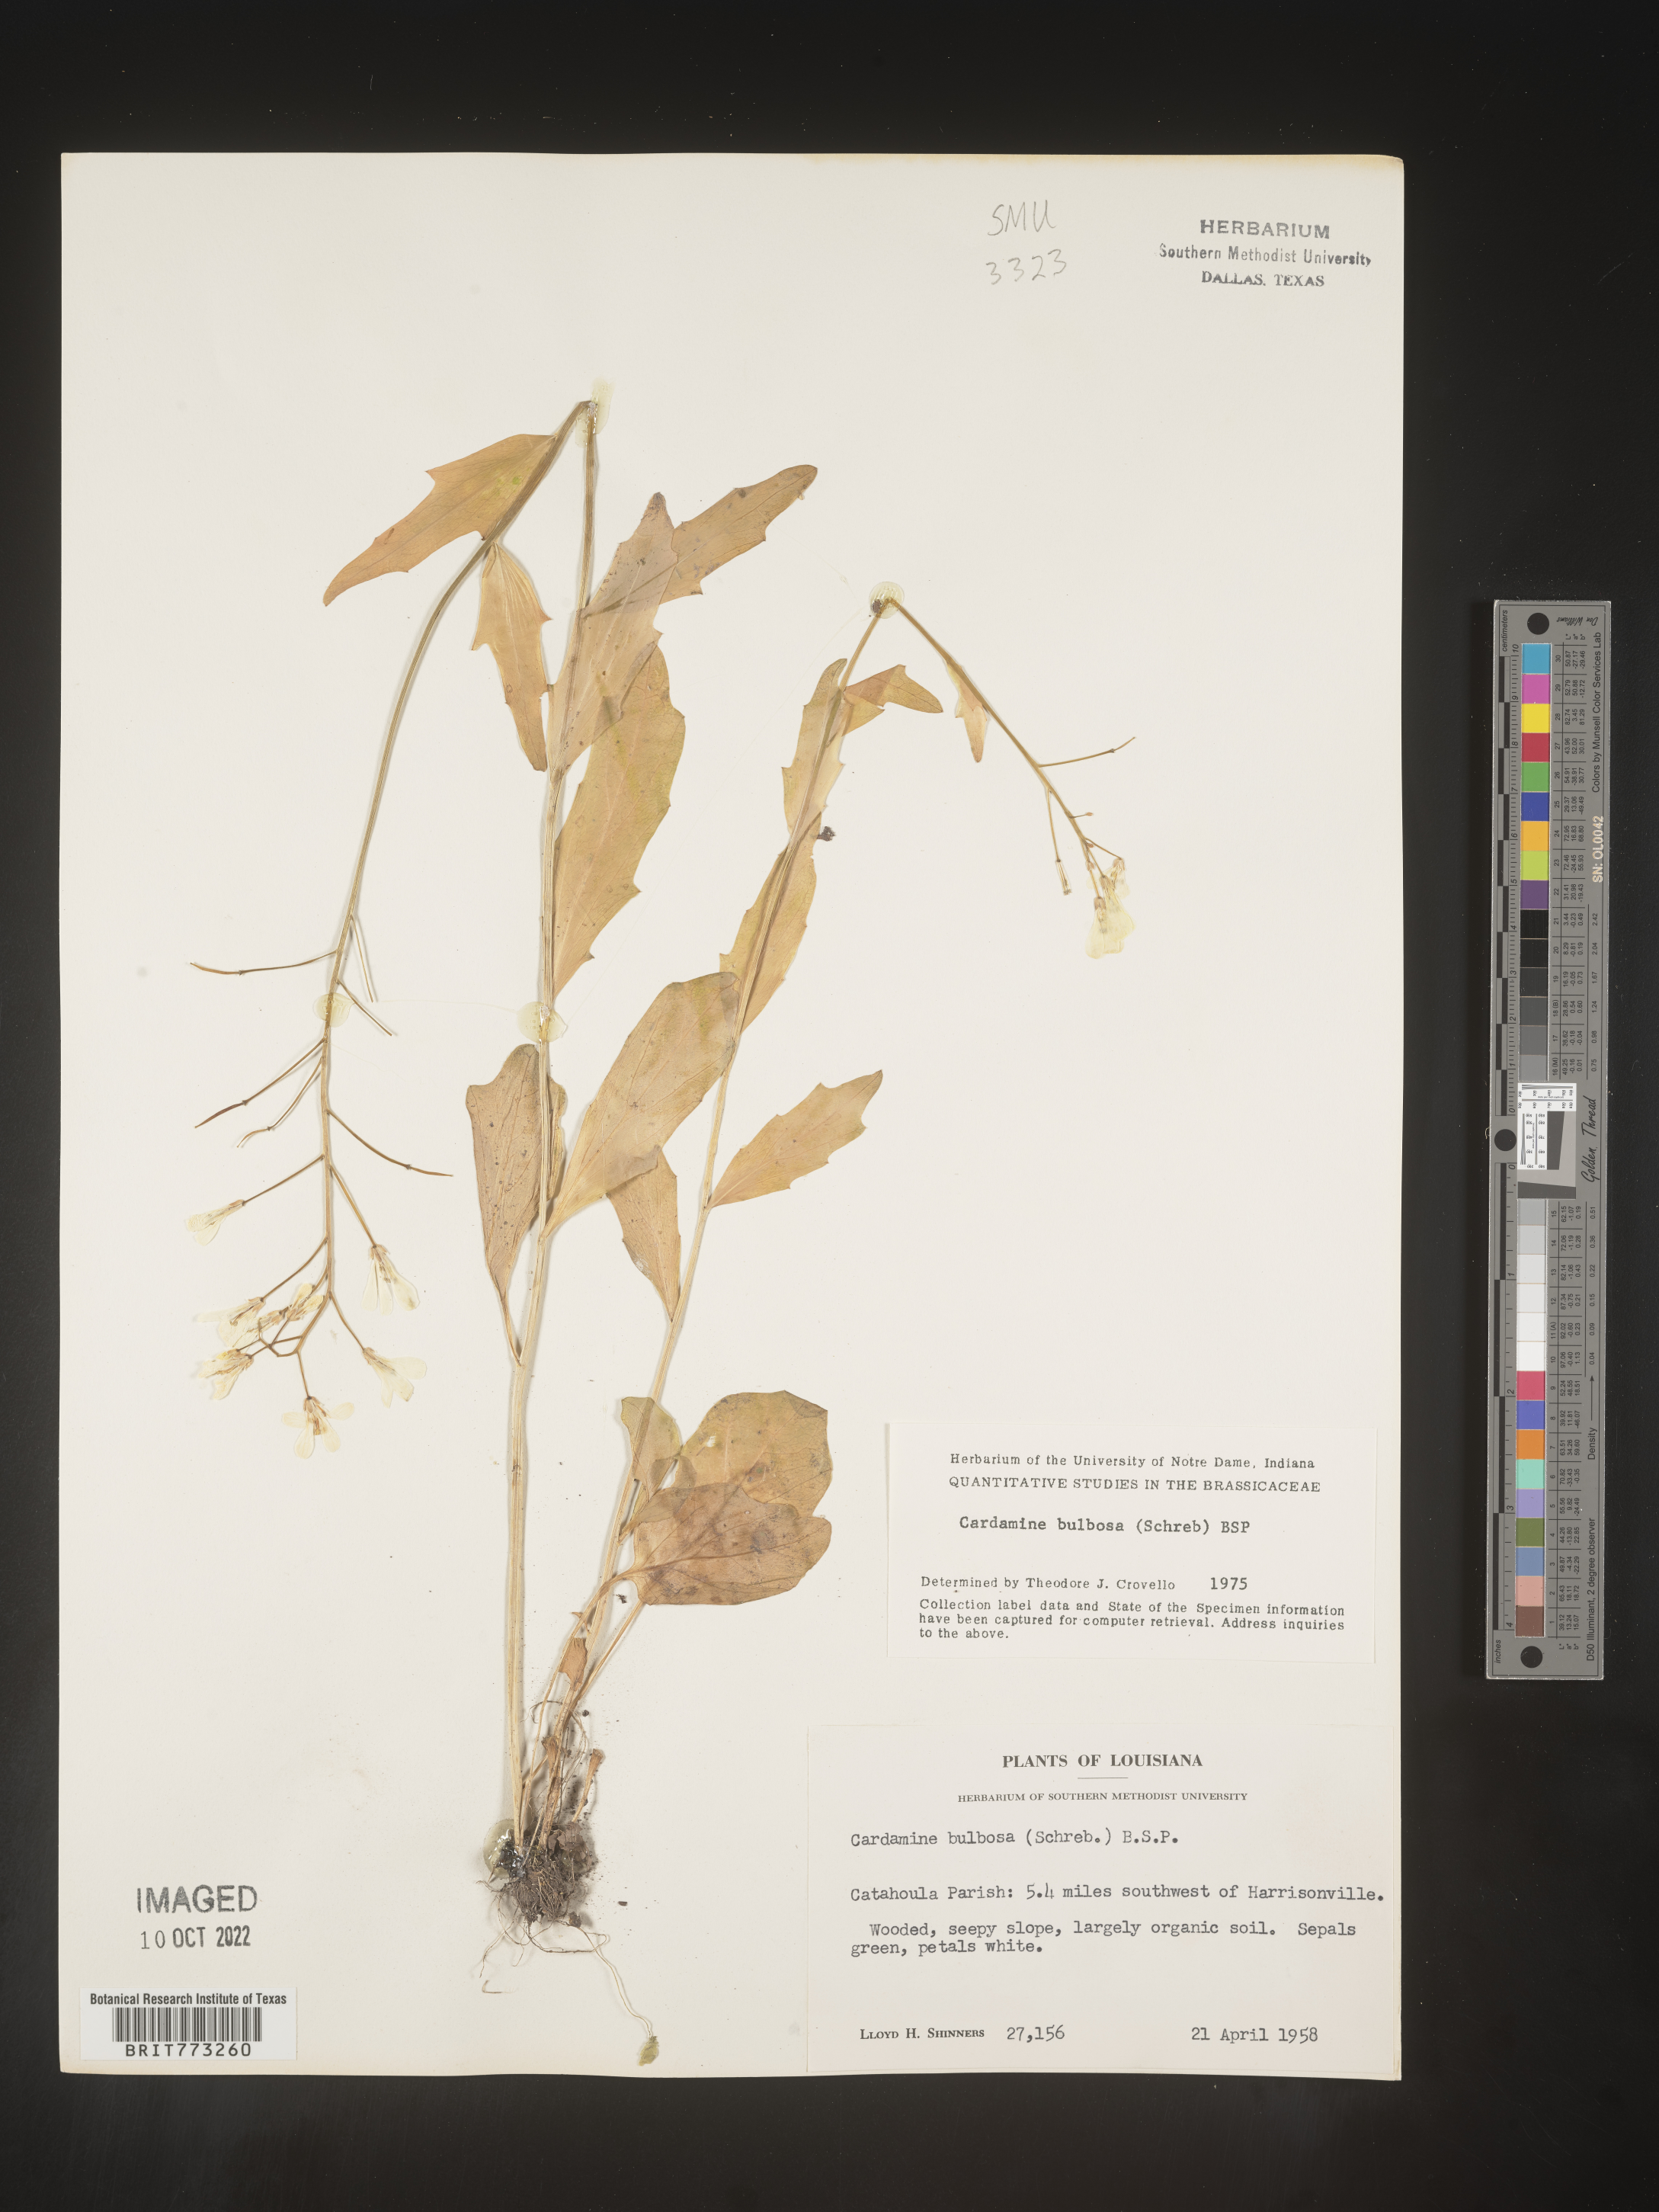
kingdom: Plantae
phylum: Tracheophyta
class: Magnoliopsida
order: Brassicales
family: Brassicaceae
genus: Cardamine
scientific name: Cardamine bulbosa
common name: Spring cress
